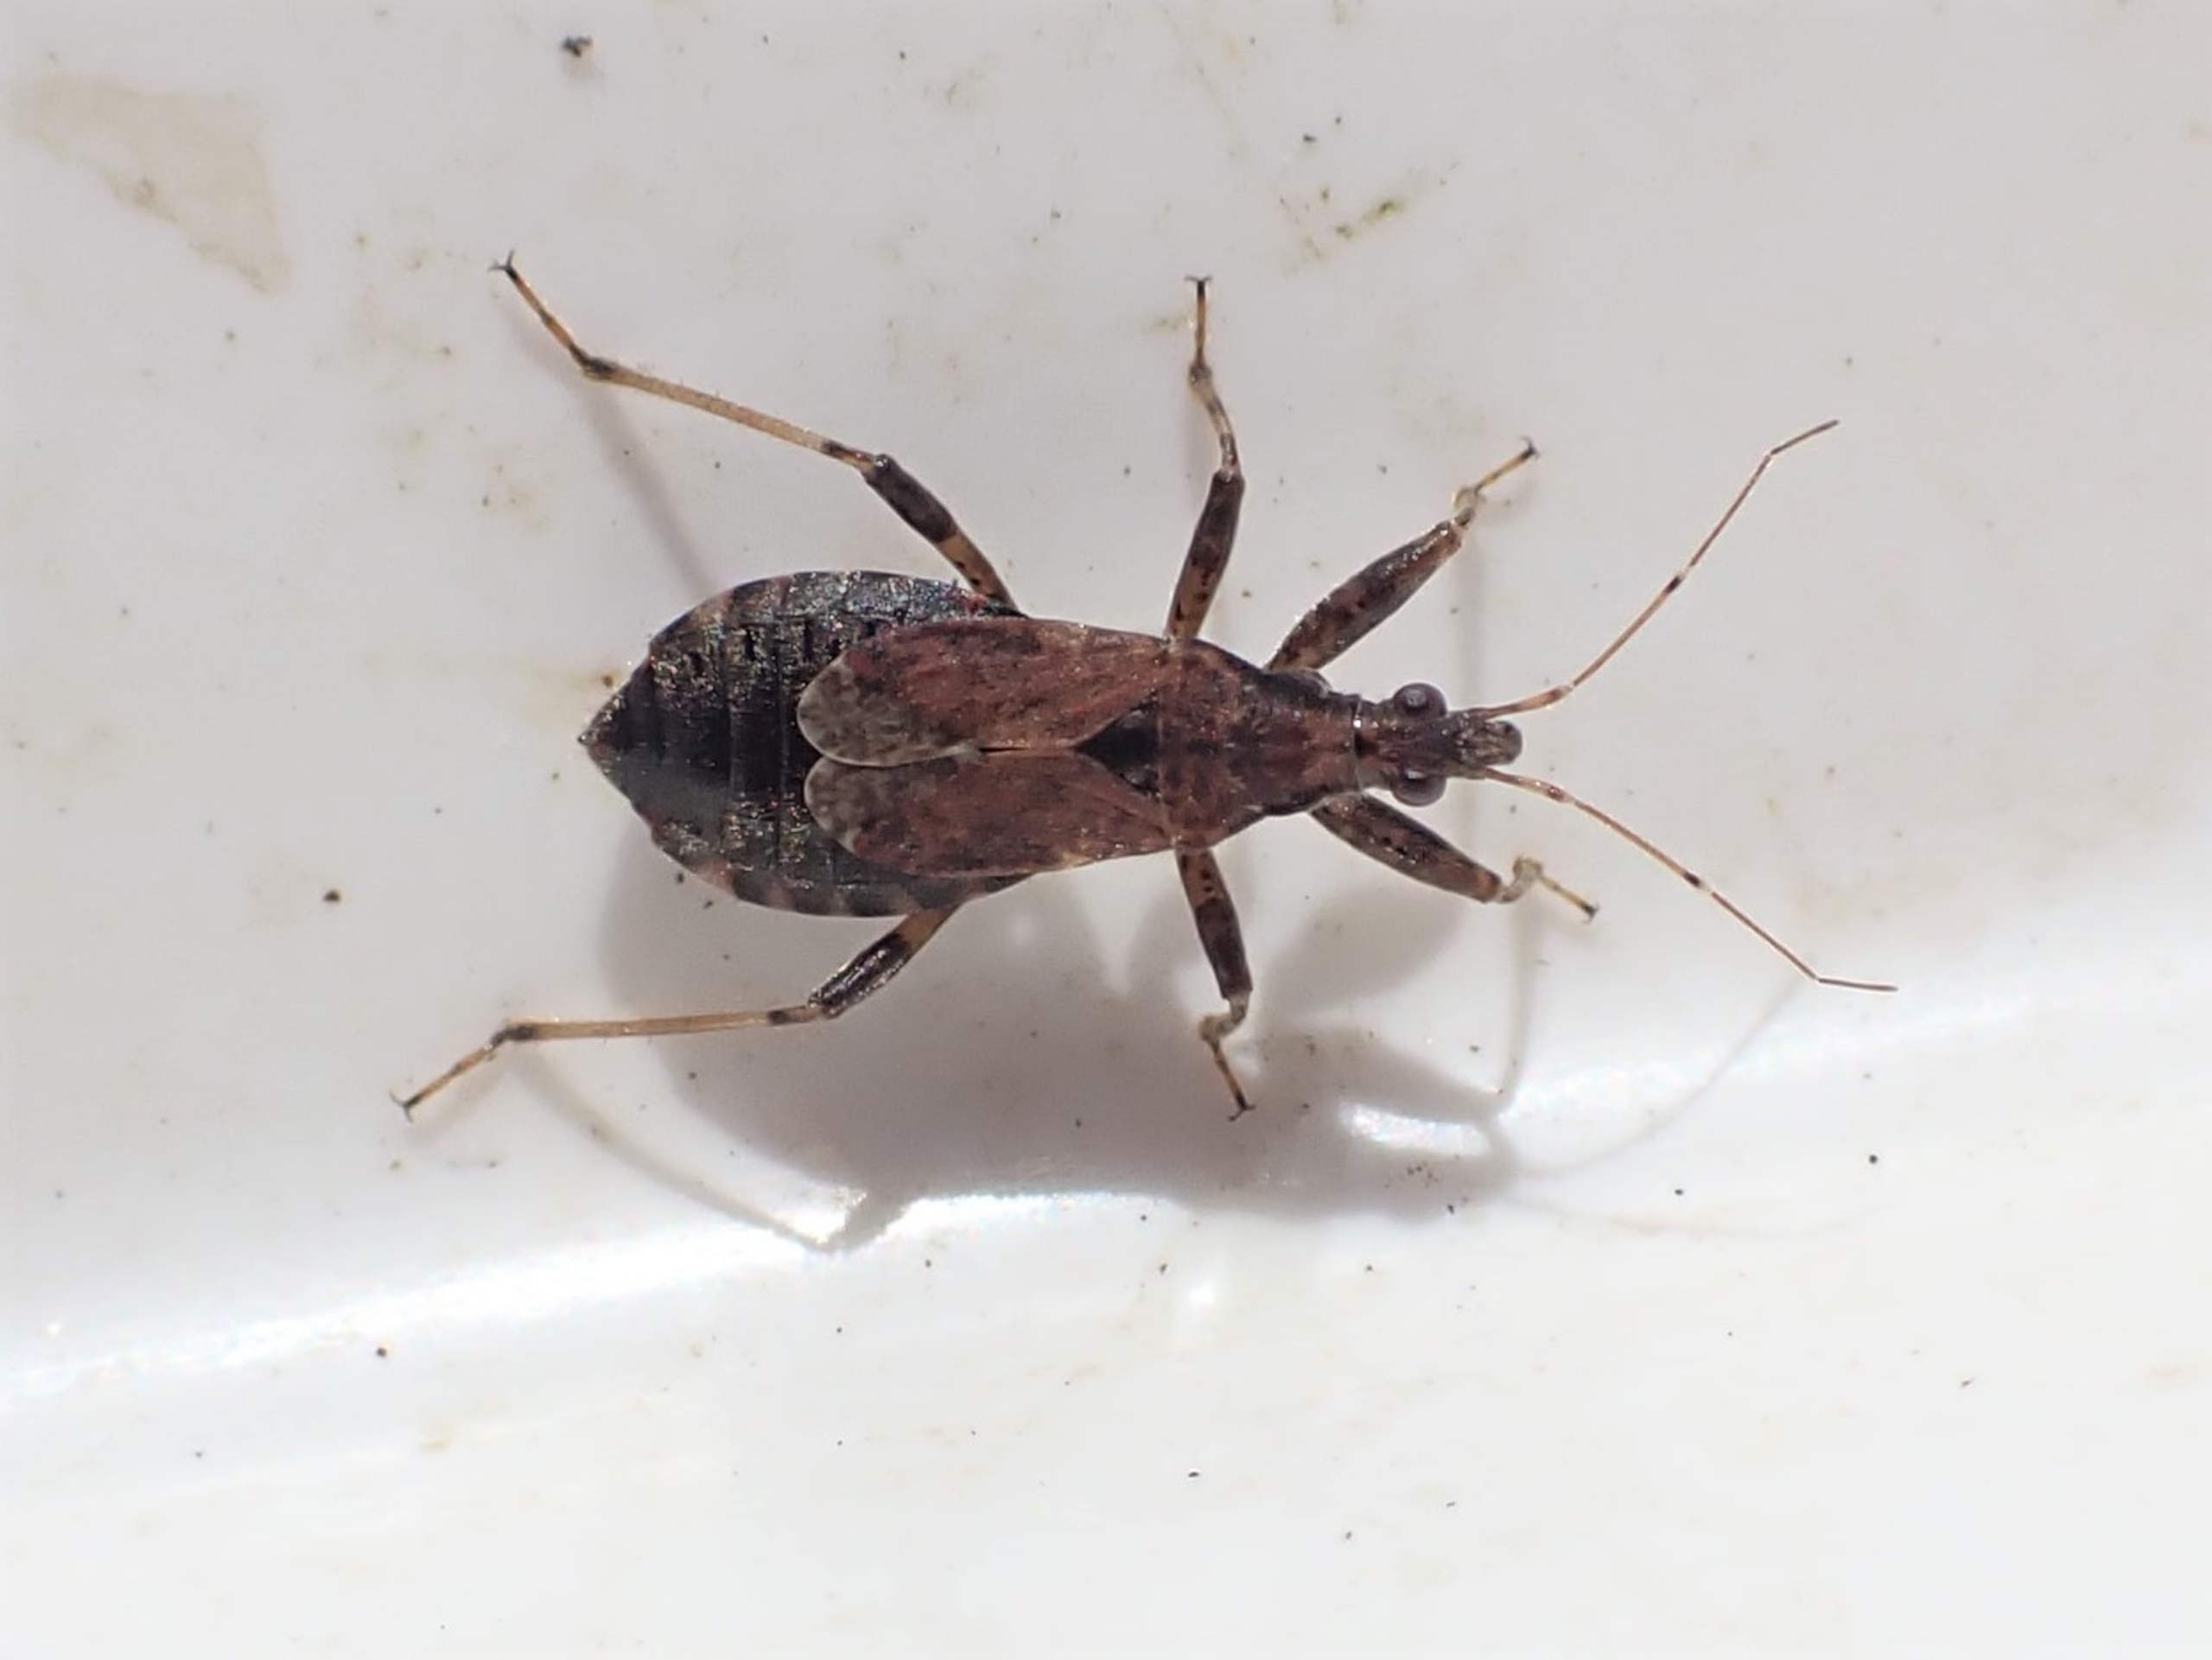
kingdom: Animalia
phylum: Arthropoda
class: Insecta
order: Hemiptera
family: Nabidae
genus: Himacerus
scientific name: Himacerus mirmicoides
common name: Myrenymfetæge
